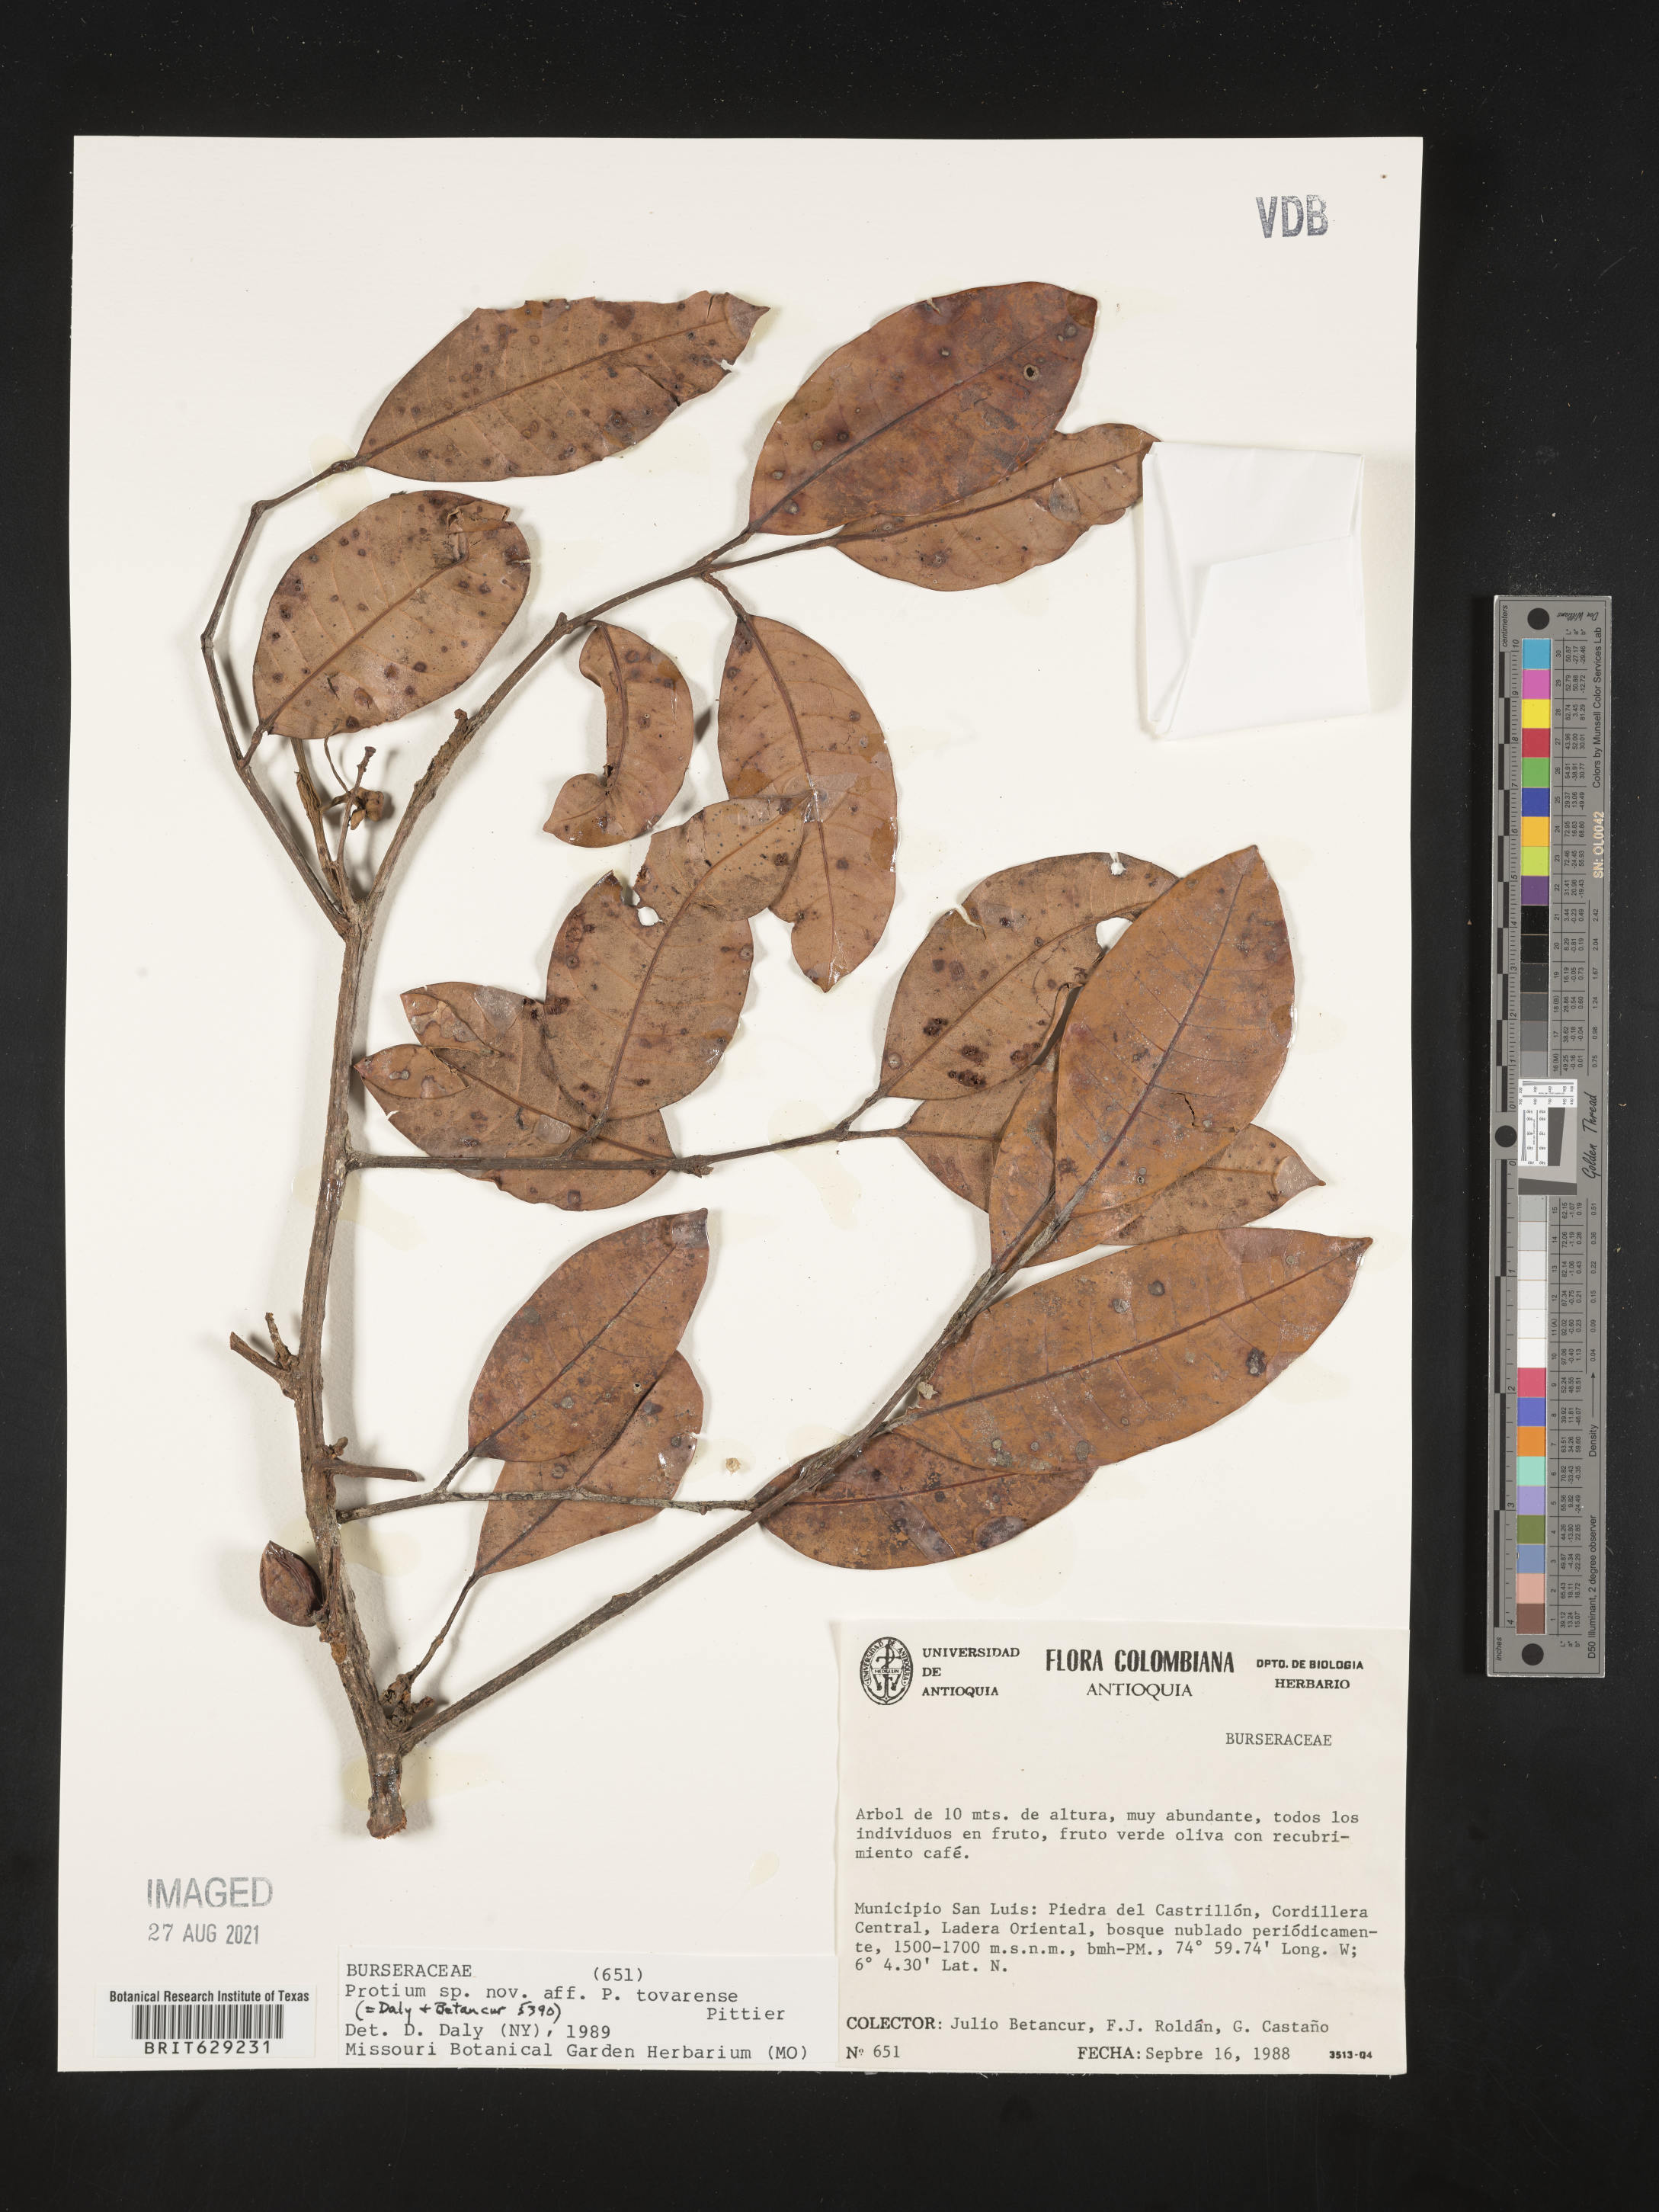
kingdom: Plantae
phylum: Tracheophyta
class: Magnoliopsida
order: Sapindales
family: Burseraceae
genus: Protium
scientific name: Protium
